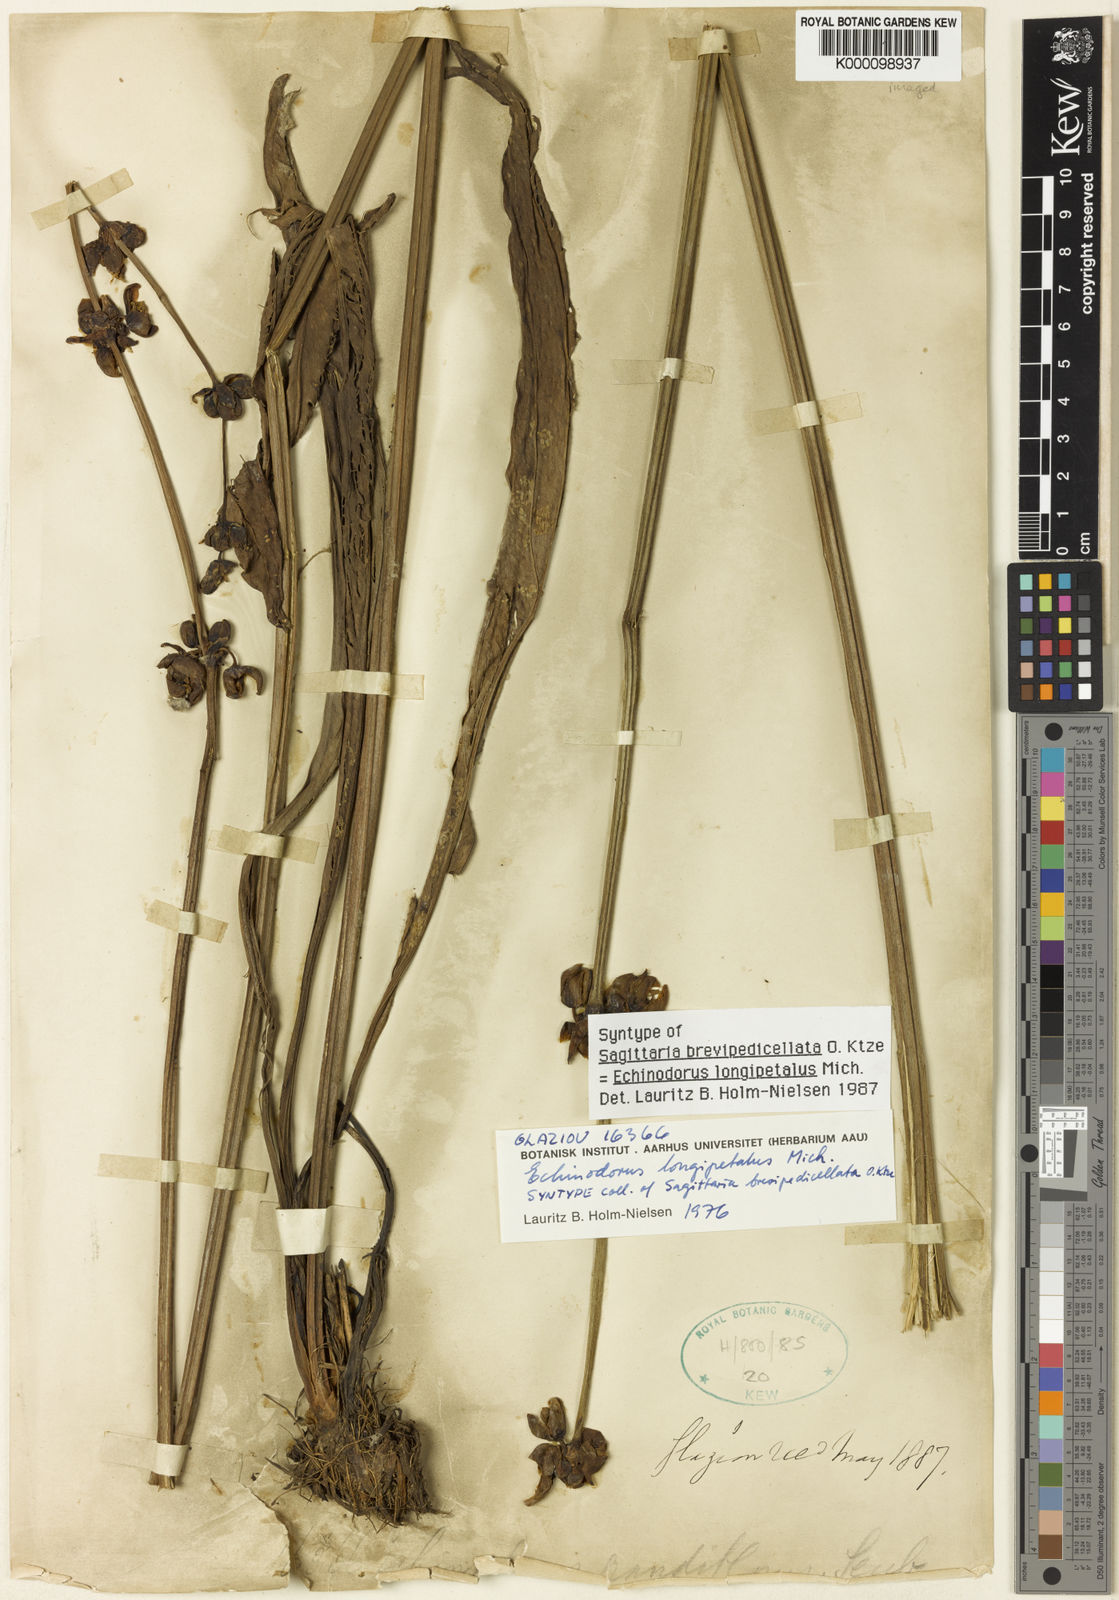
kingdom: Plantae
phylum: Tracheophyta
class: Liliopsida
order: Alismatales
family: Alismataceae
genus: Aquarius
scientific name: Aquarius longipetalus
